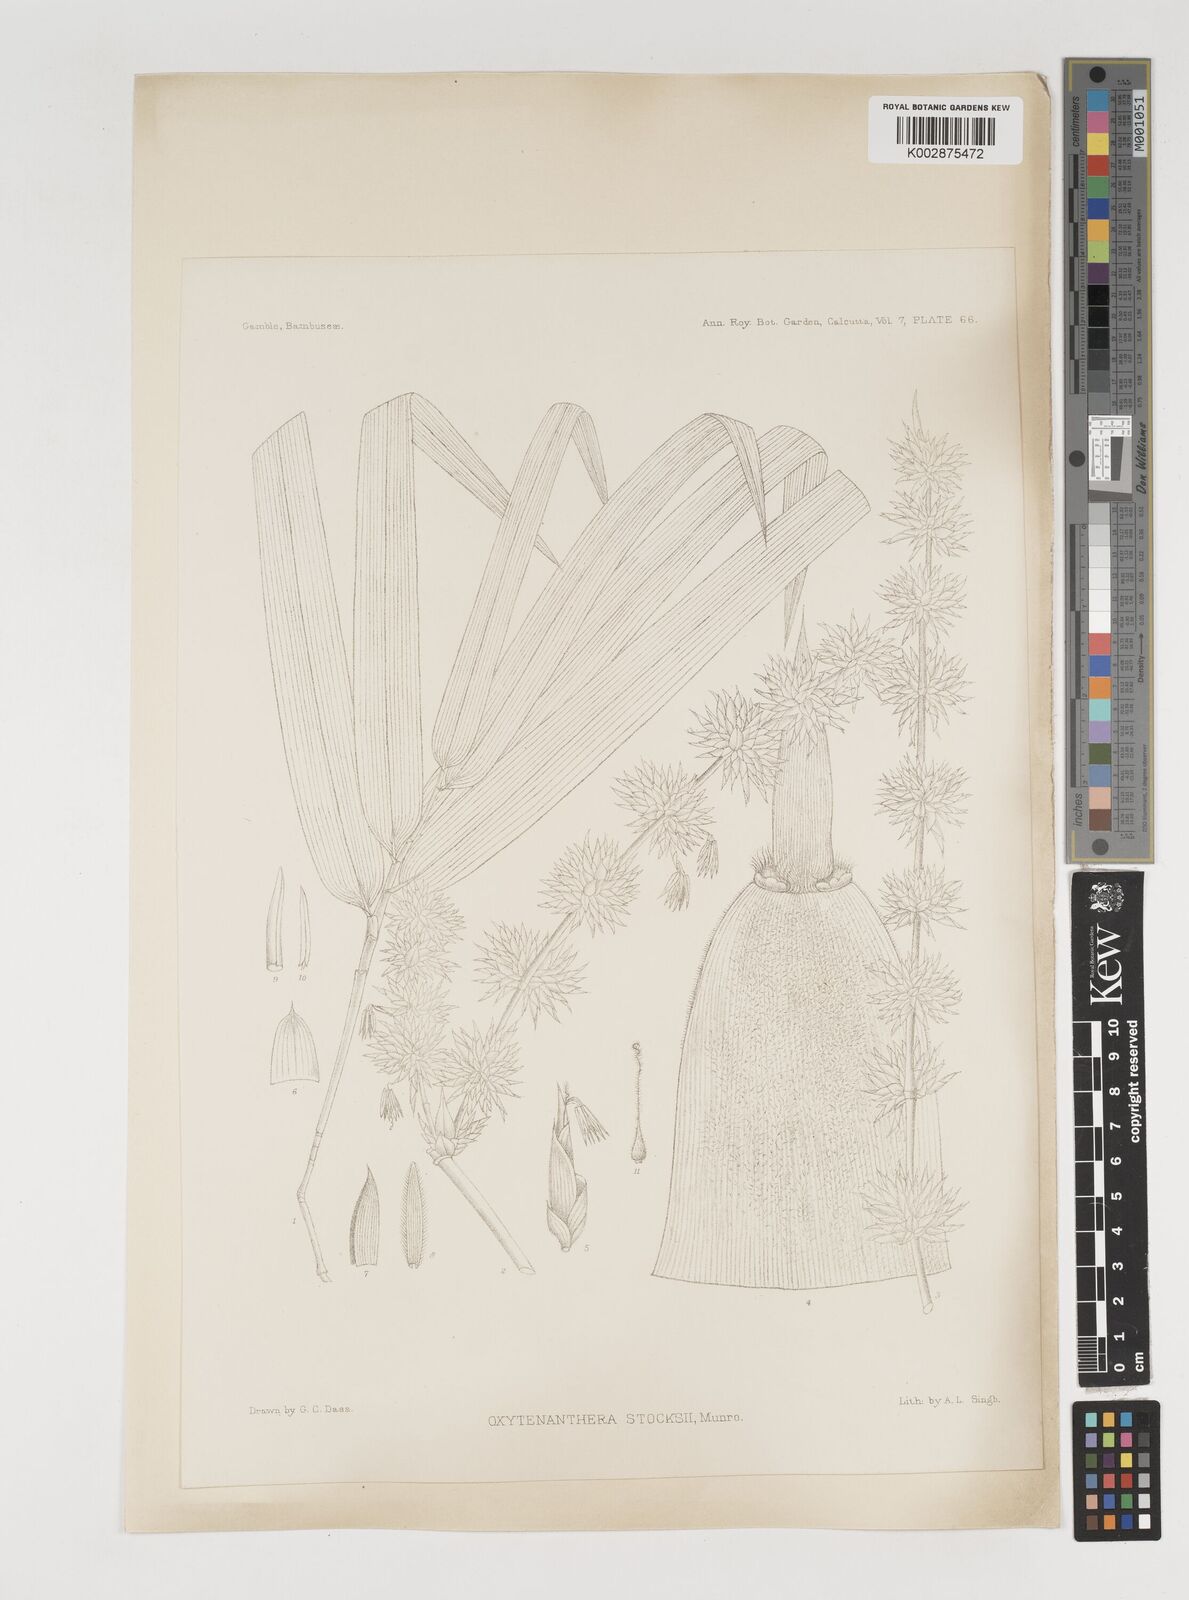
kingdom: Plantae
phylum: Tracheophyta
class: Liliopsida
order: Poales
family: Poaceae
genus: Pseudoxytenanthera
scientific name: Pseudoxytenanthera stocksii
